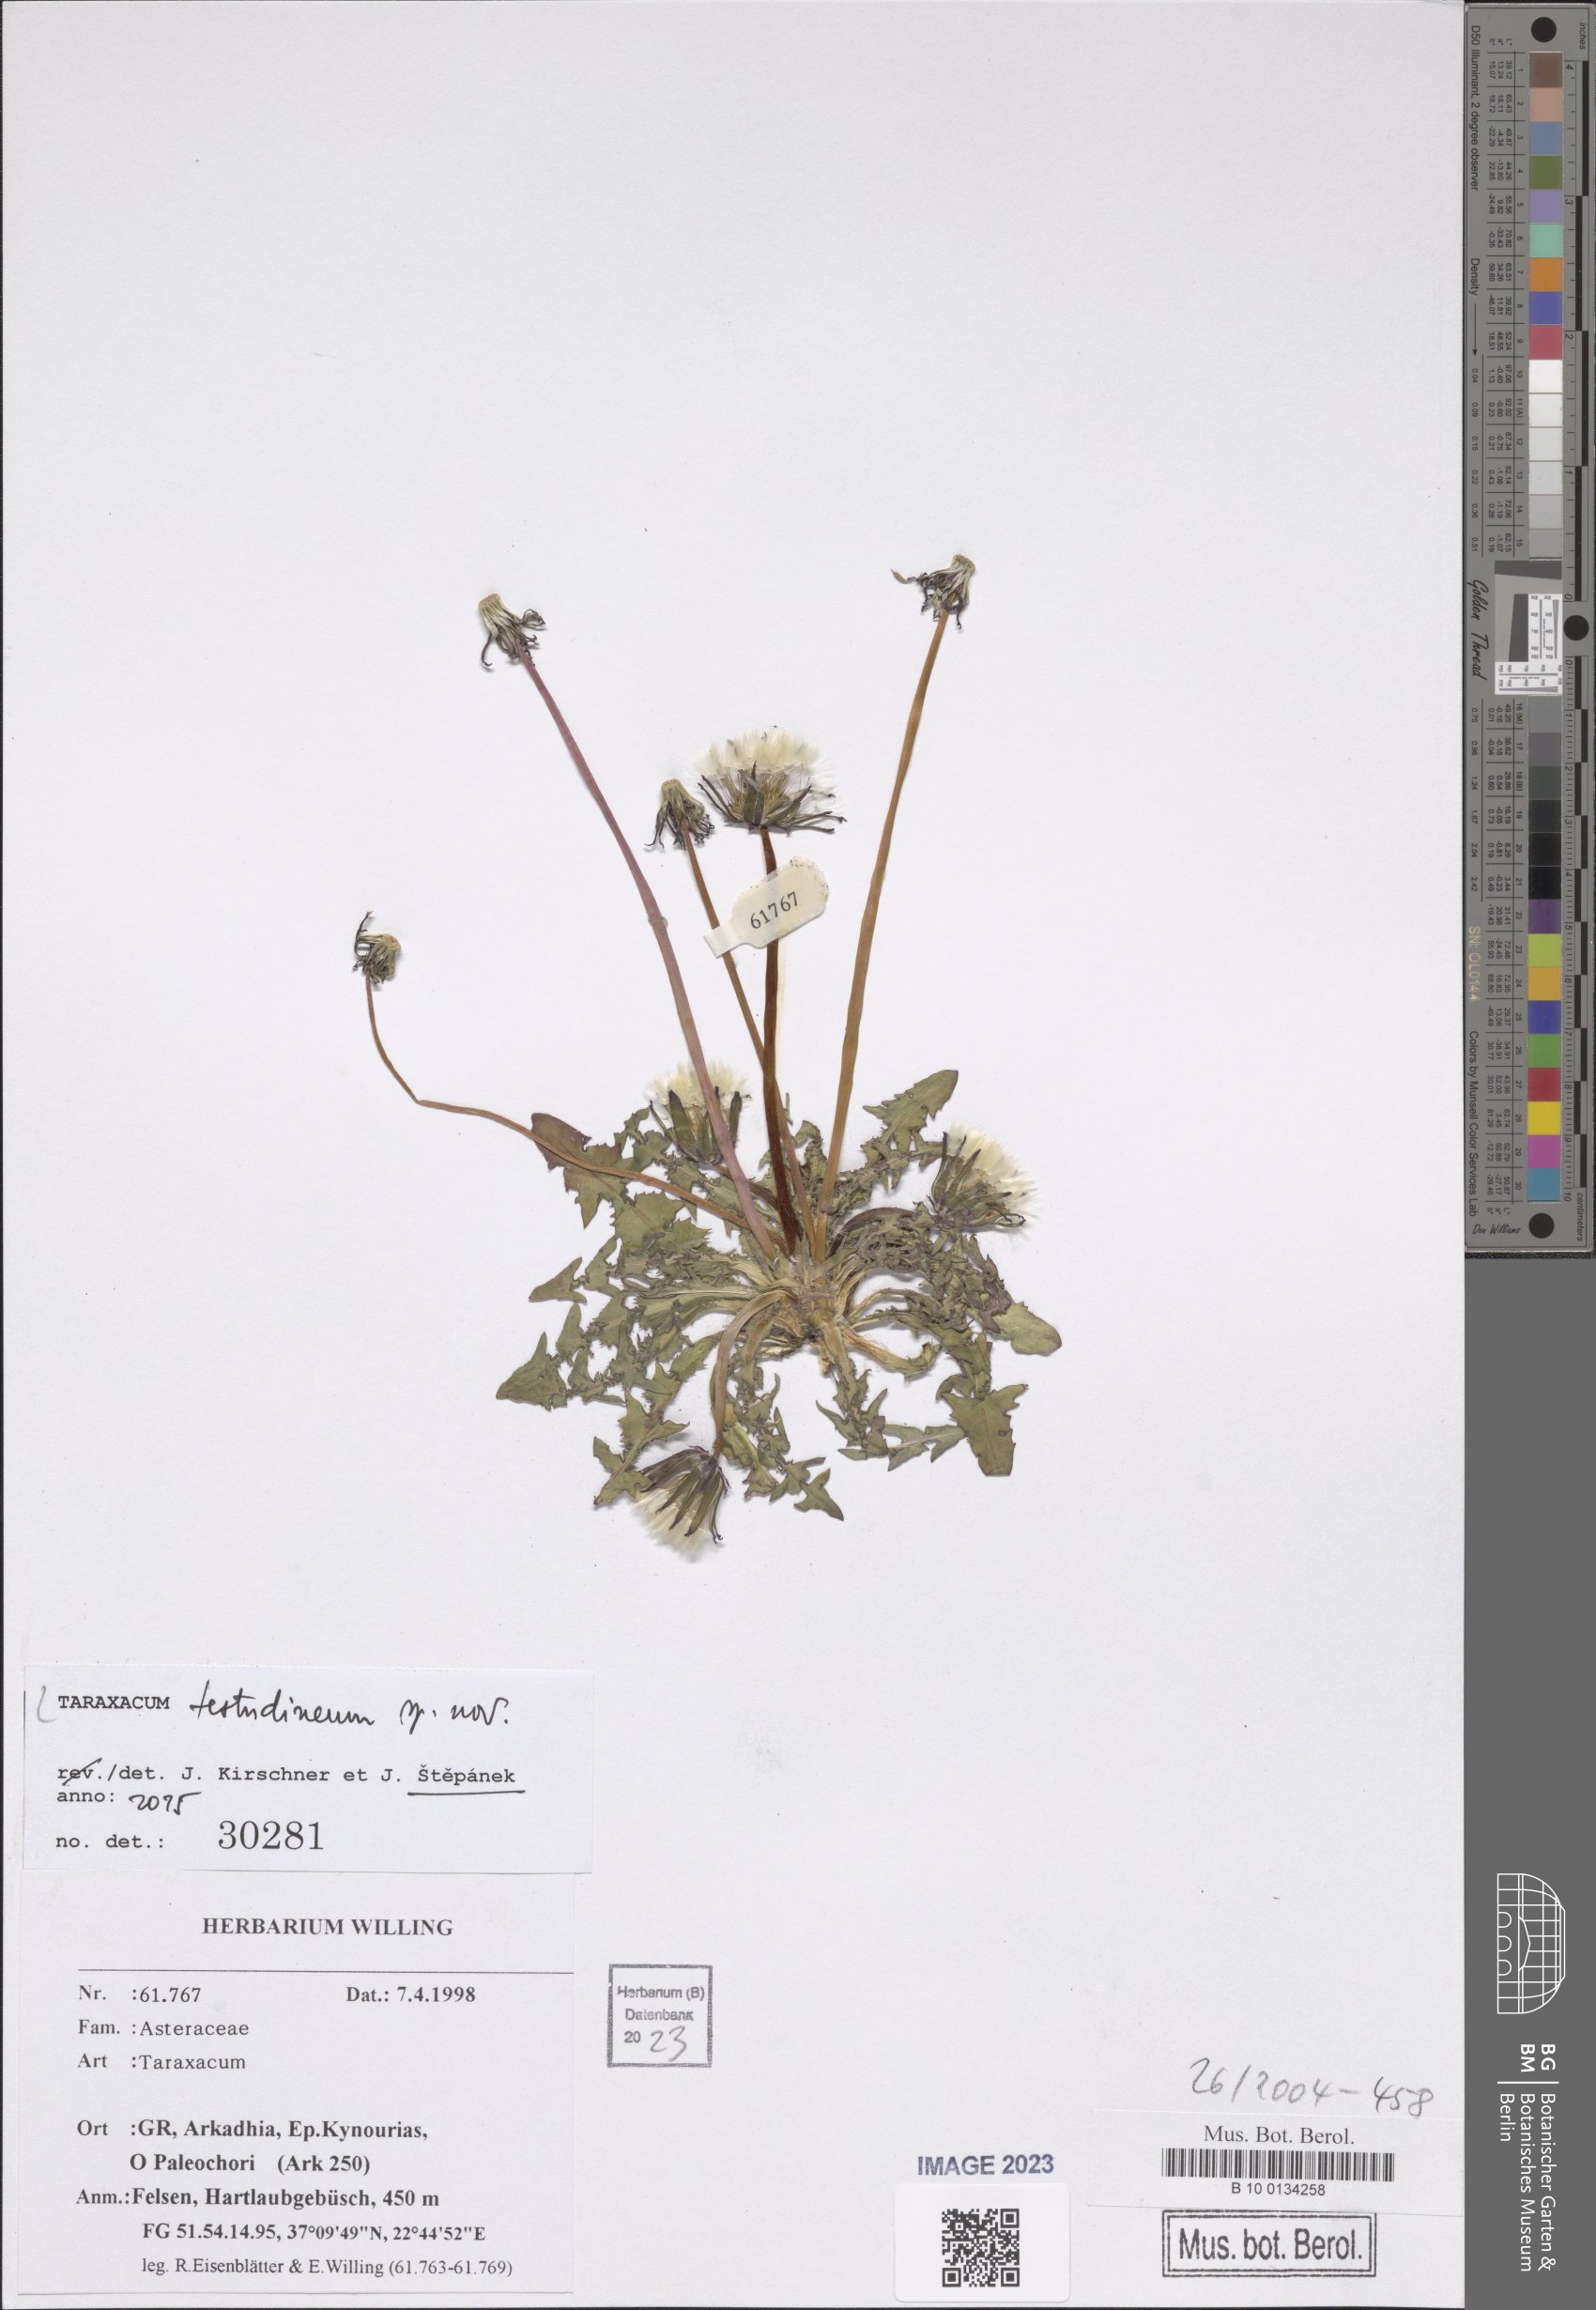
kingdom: Plantae
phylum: Tracheophyta
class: Magnoliopsida
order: Asterales
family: Asteraceae
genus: Taraxacum
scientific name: Taraxacum
